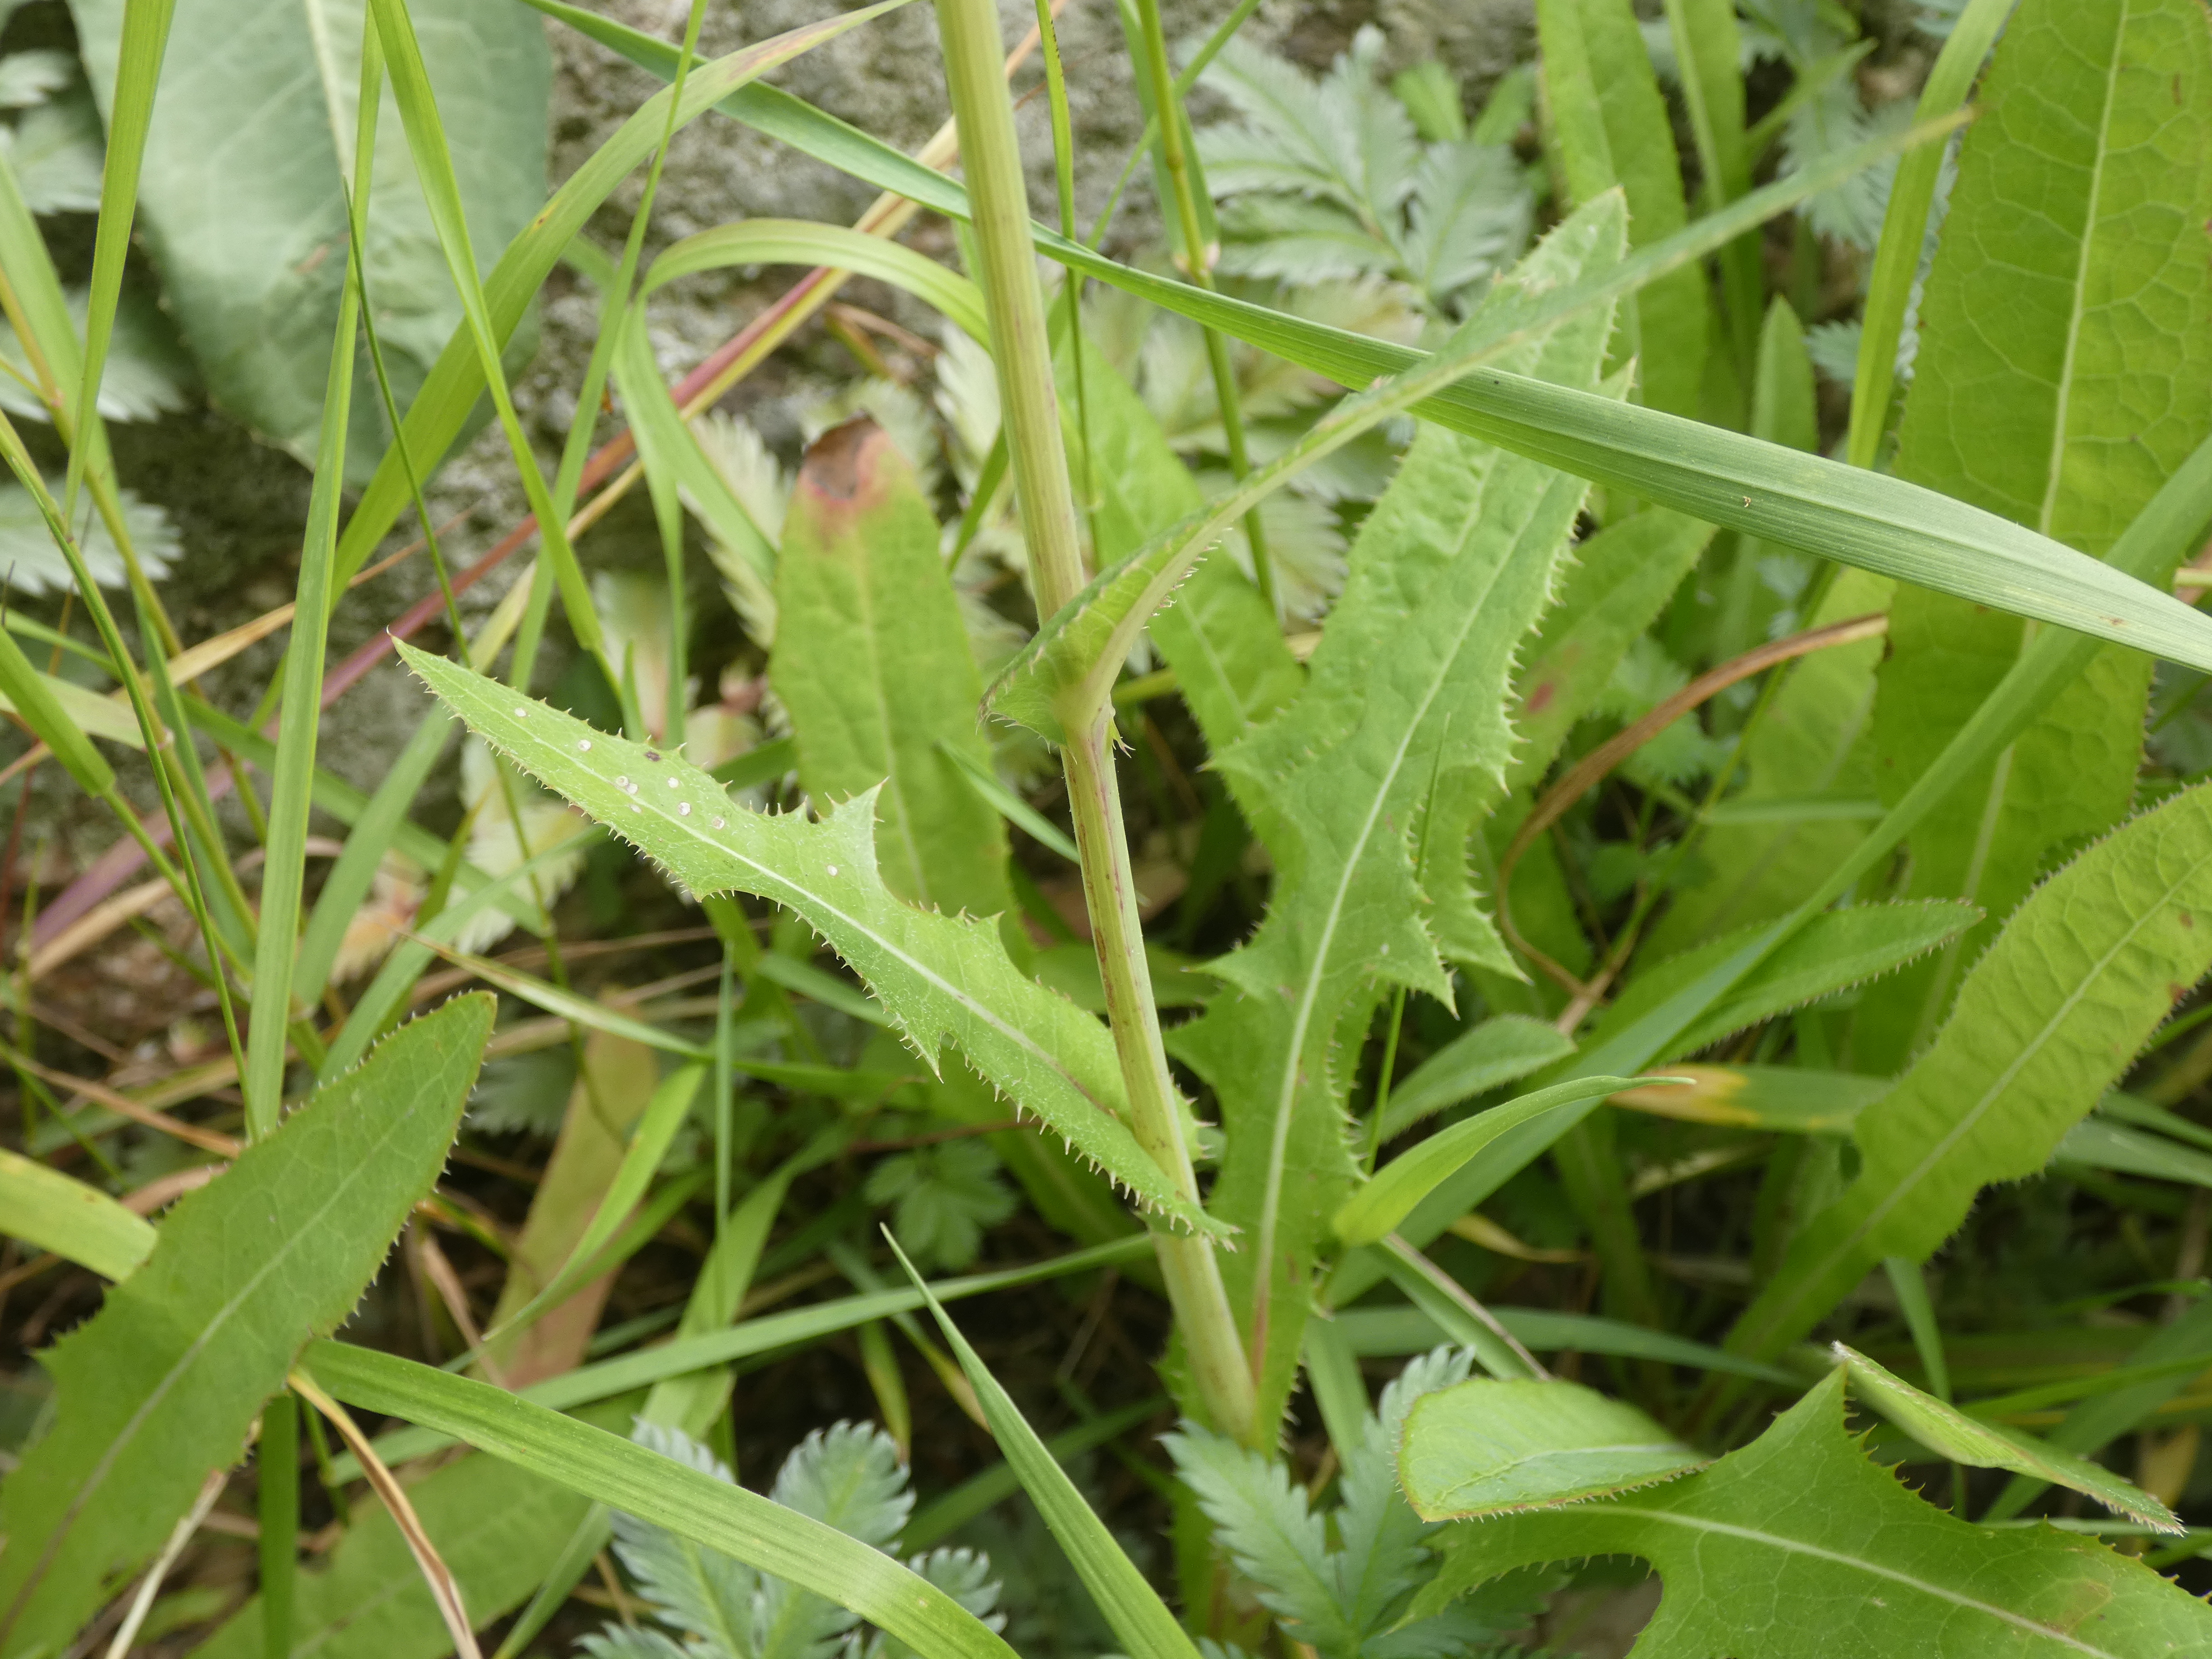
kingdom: Plantae
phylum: Tracheophyta
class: Magnoliopsida
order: Asterales
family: Asteraceae
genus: Sonchus
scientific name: Sonchus arvensis
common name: Ager-svinemælk
